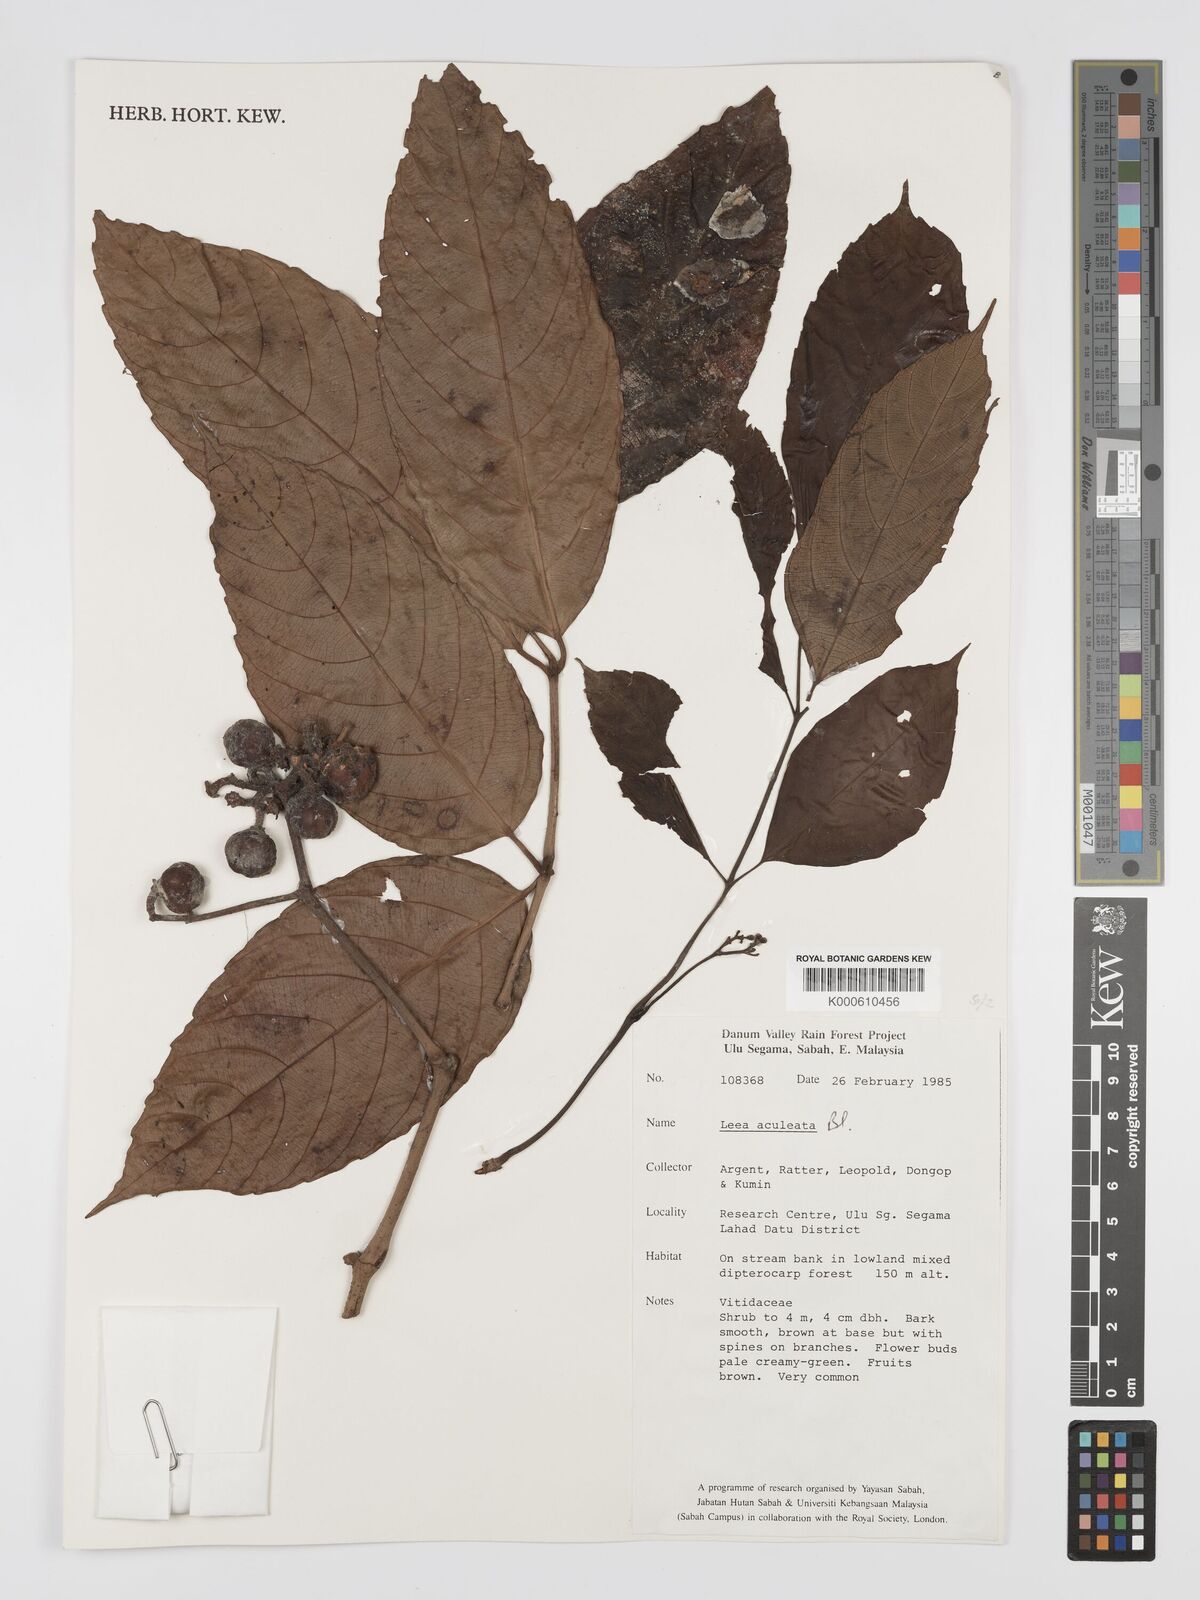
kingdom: Plantae
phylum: Tracheophyta
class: Magnoliopsida
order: Vitales
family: Vitaceae
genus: Leea
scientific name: Leea aculeata
